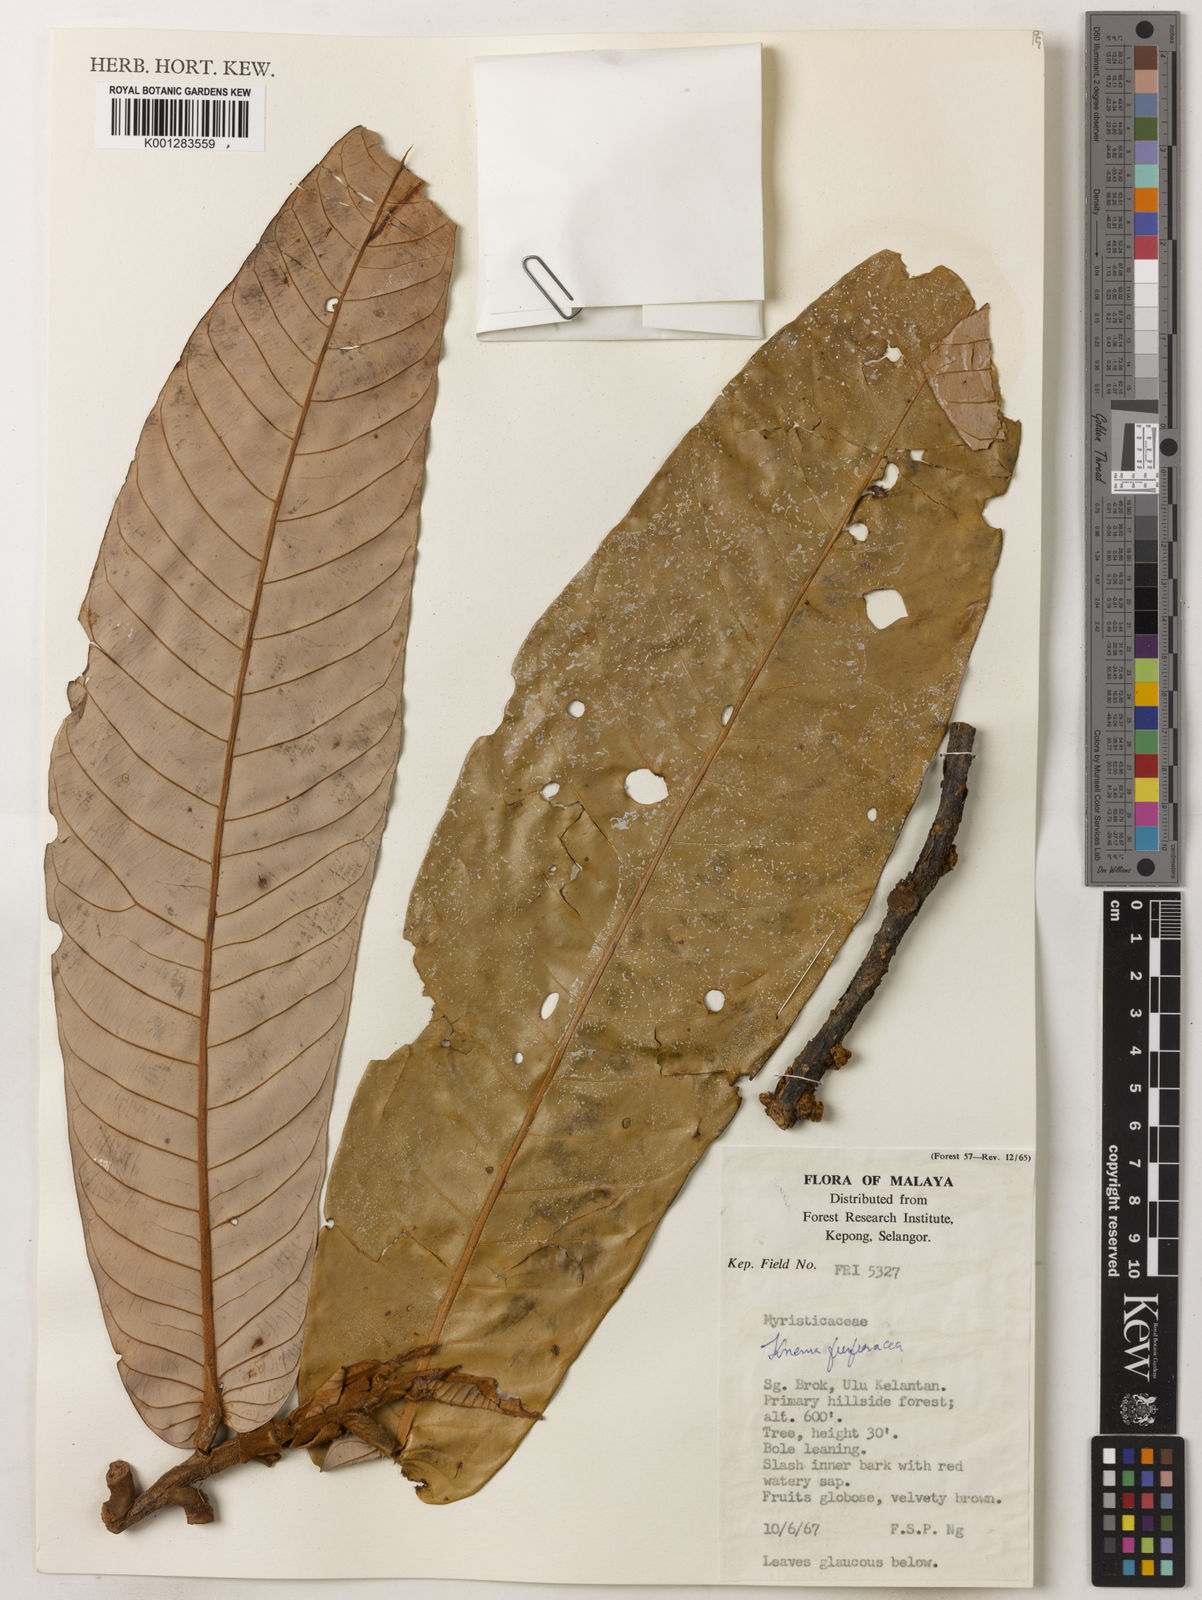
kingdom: Plantae
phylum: Tracheophyta
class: Magnoliopsida
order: Magnoliales
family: Myristicaceae
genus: Knema
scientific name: Knema furfuracea
